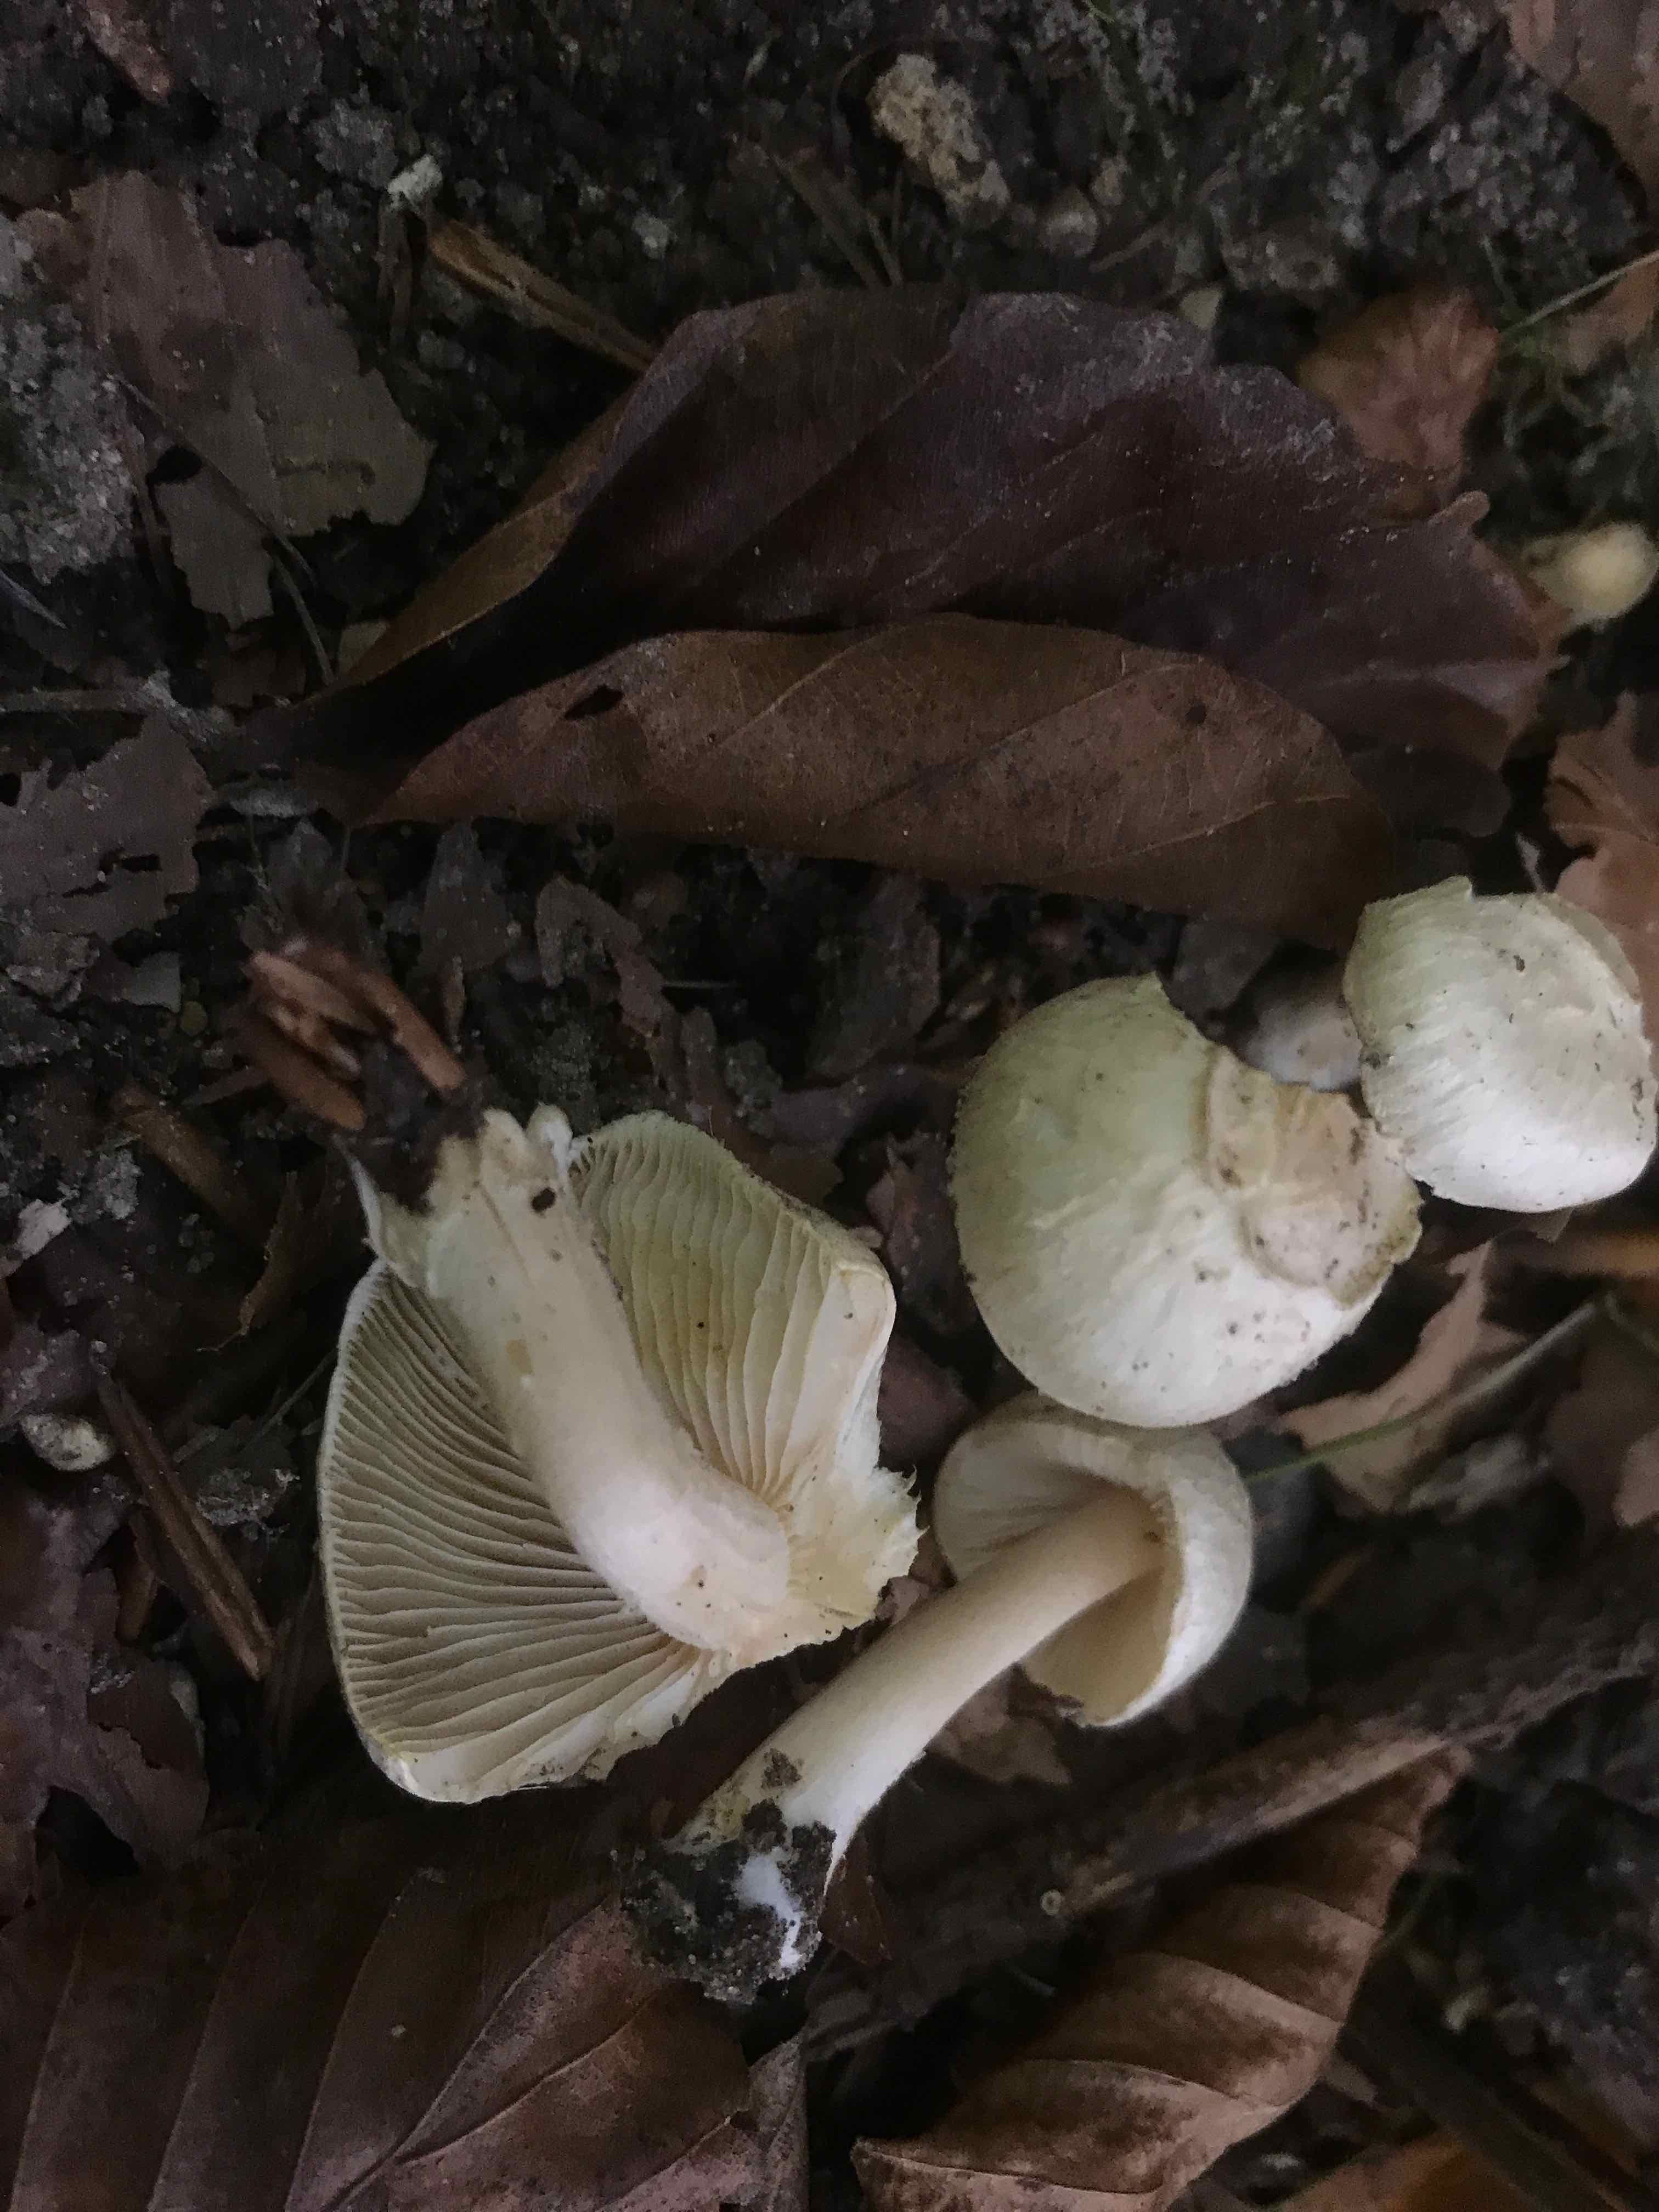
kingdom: Fungi
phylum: Basidiomycota
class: Agaricomycetes
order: Agaricales
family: Agaricaceae
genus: Lepiota
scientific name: Lepiota cristata
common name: stinkende parasolhat
